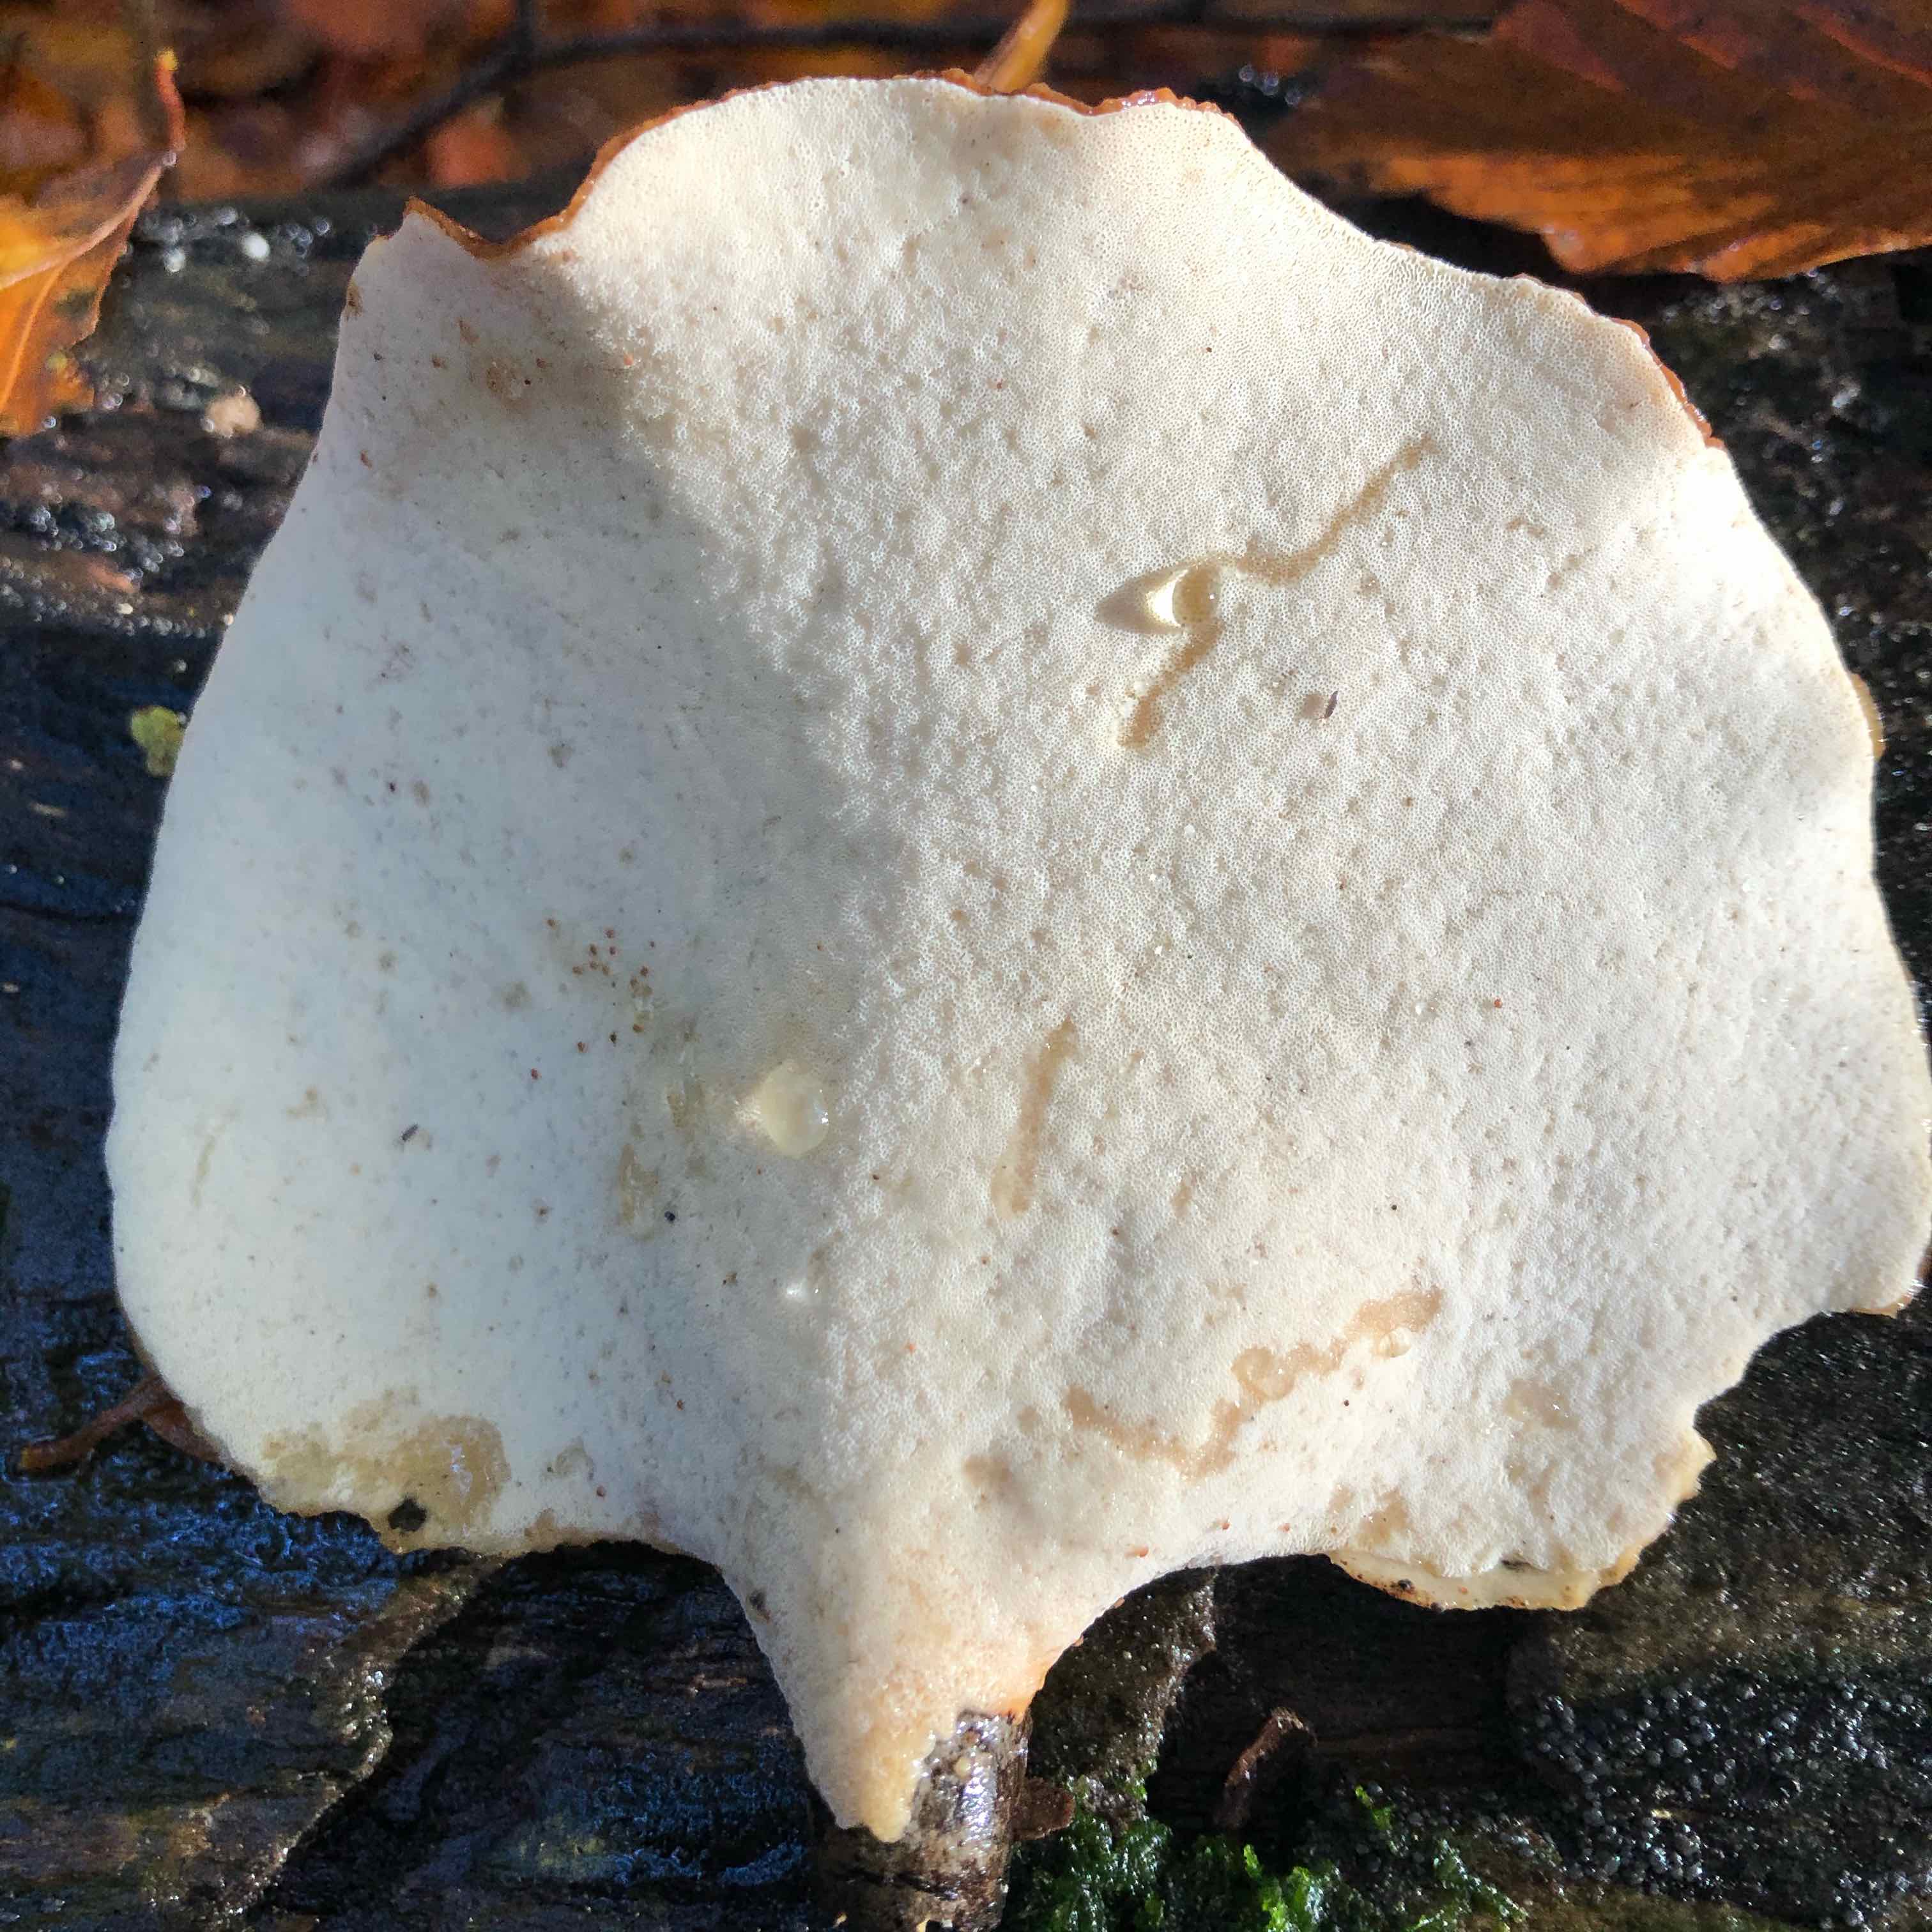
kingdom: Fungi
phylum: Basidiomycota
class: Agaricomycetes
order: Polyporales
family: Polyporaceae
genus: Picipes
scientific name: Picipes badius
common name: kastaniebrun stilkporesvamp
